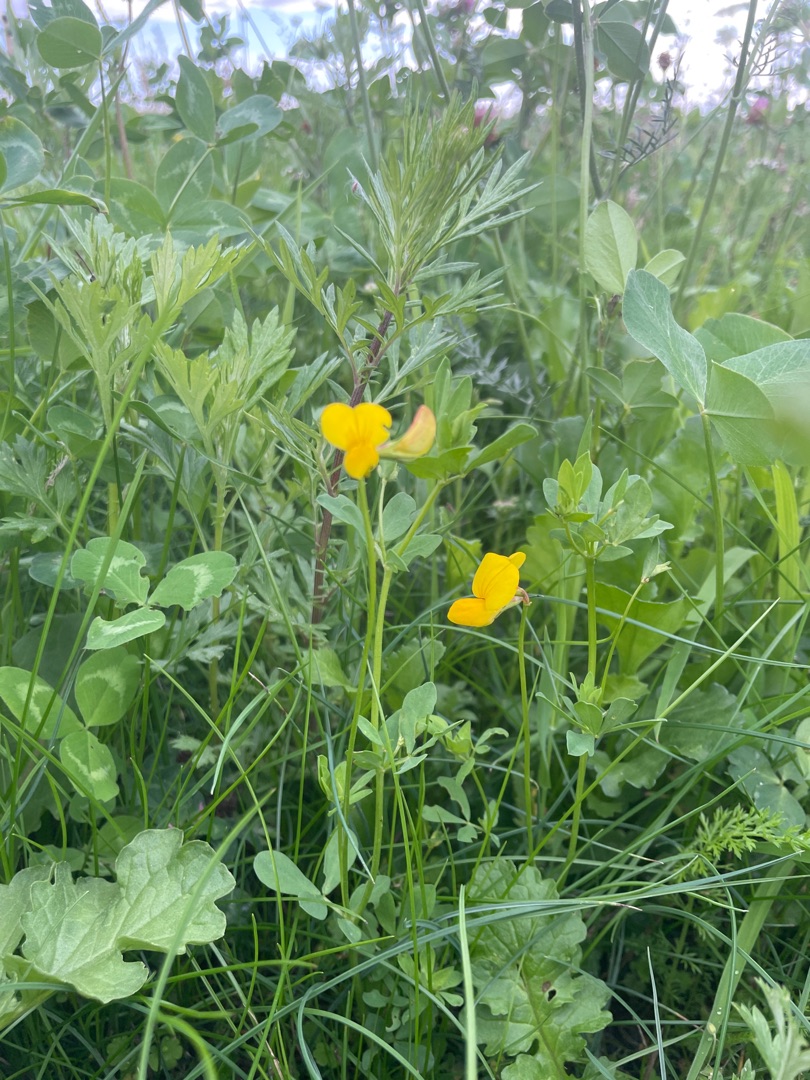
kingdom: Plantae
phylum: Tracheophyta
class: Magnoliopsida
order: Fabales
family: Fabaceae
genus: Lotus
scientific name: Lotus corniculatus
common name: Almindelig kællingetand
